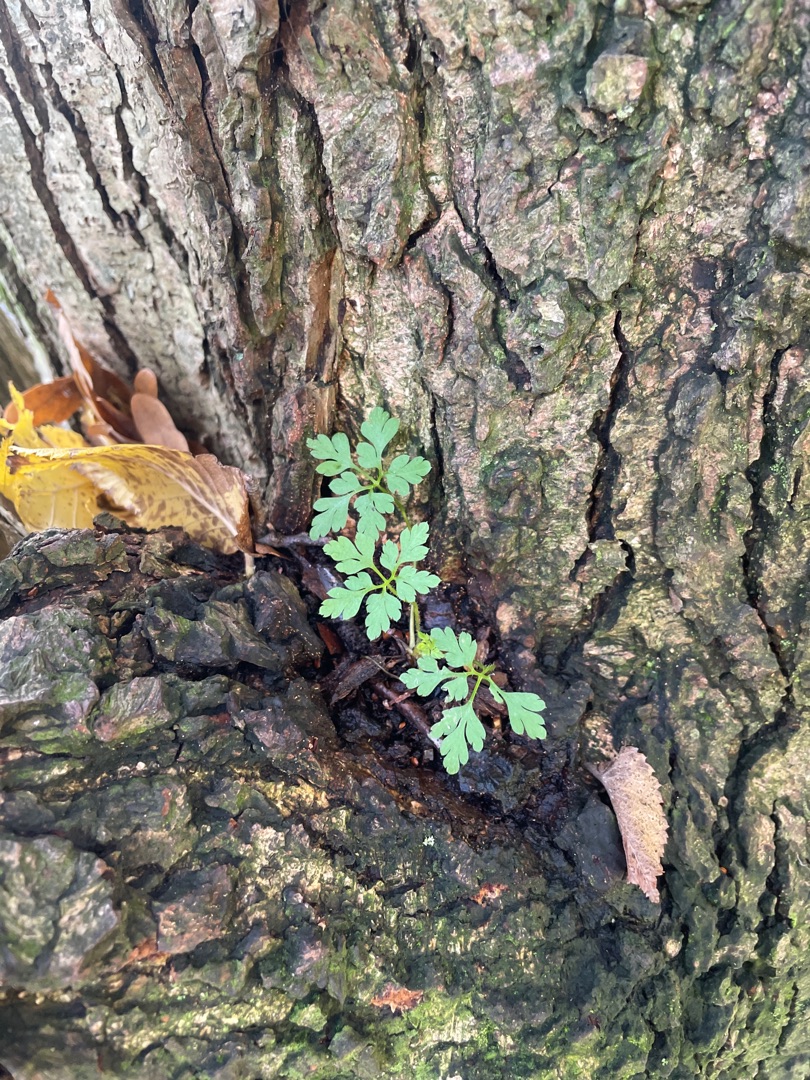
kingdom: Plantae
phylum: Tracheophyta
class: Magnoliopsida
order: Geraniales
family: Geraniaceae
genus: Geranium
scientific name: Geranium robertianum
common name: Stinkende storkenæb
